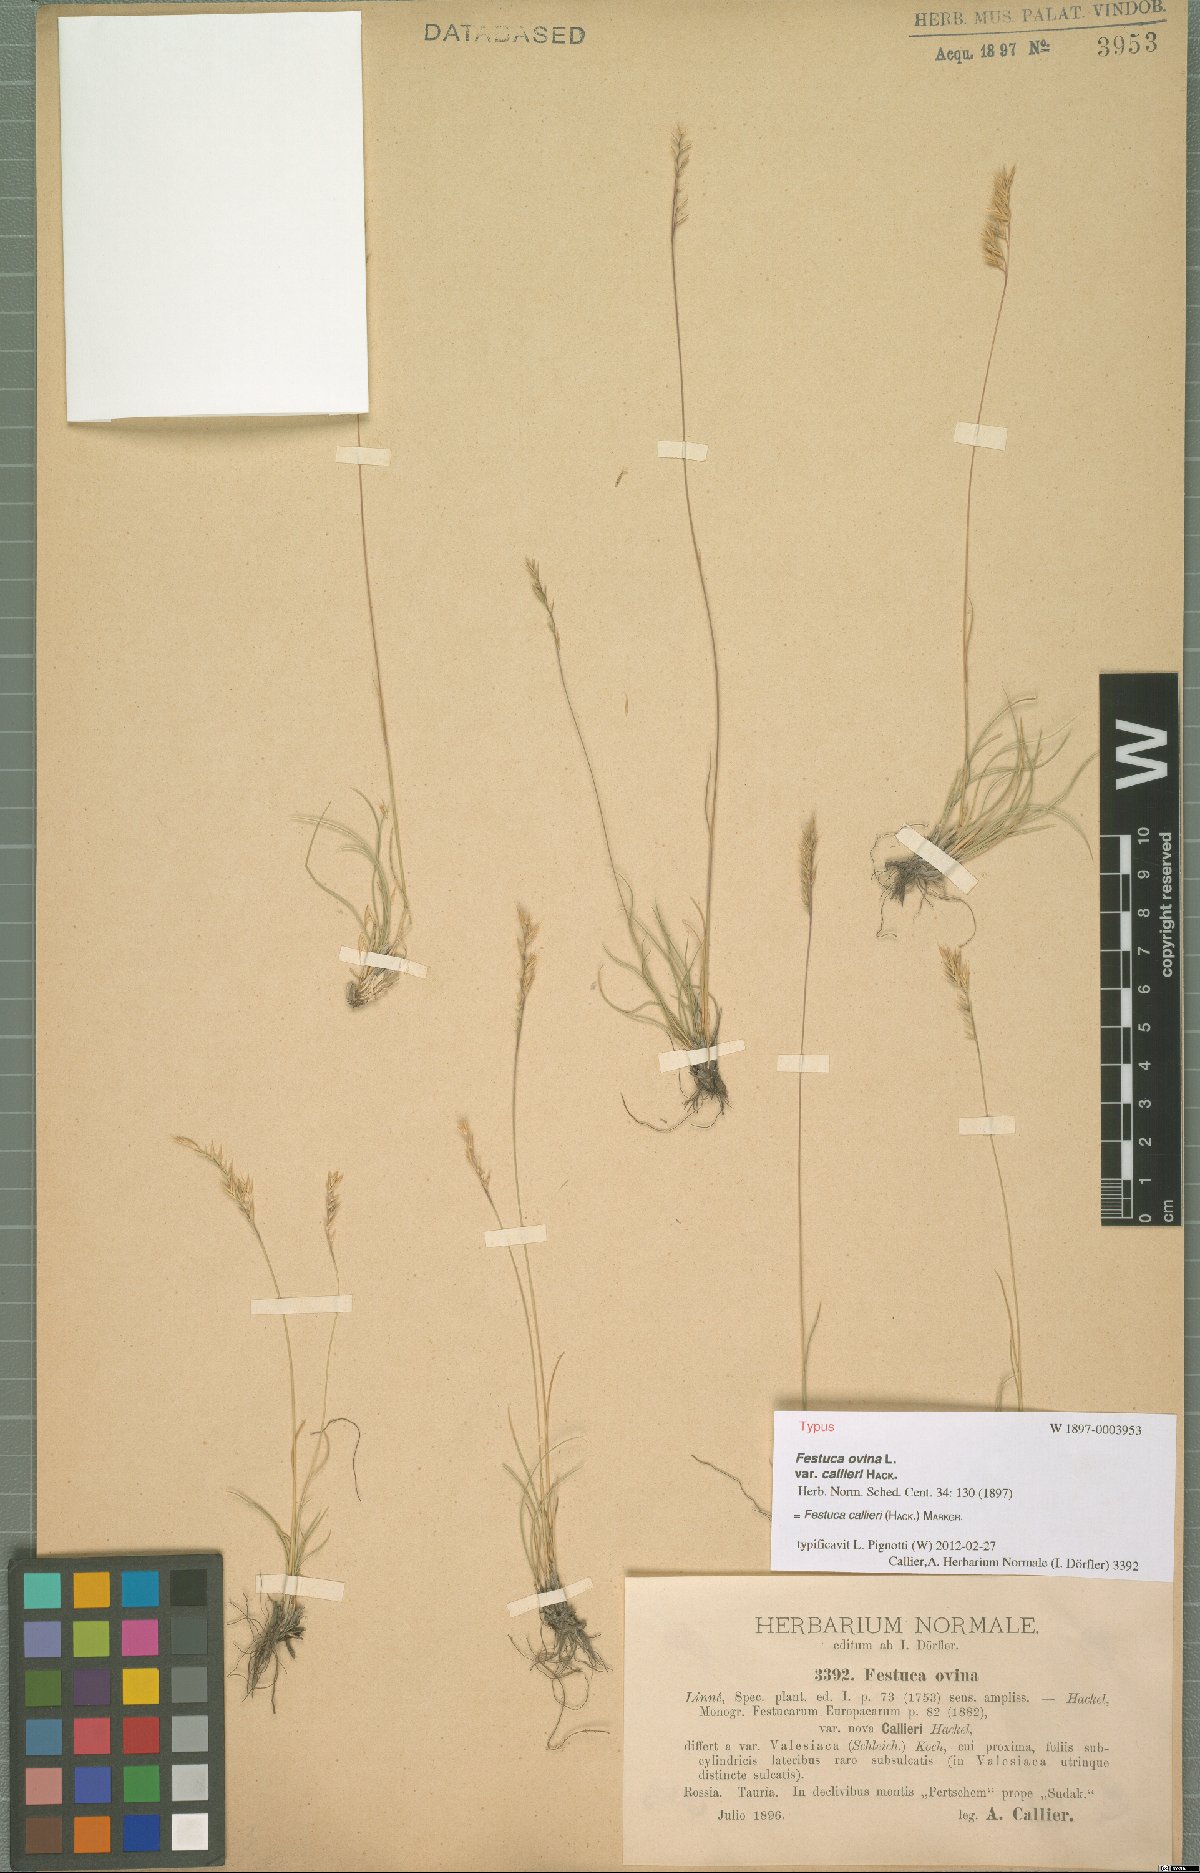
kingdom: Plantae
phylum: Tracheophyta
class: Liliopsida
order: Poales
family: Poaceae
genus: Festuca
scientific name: Festuca callieri
